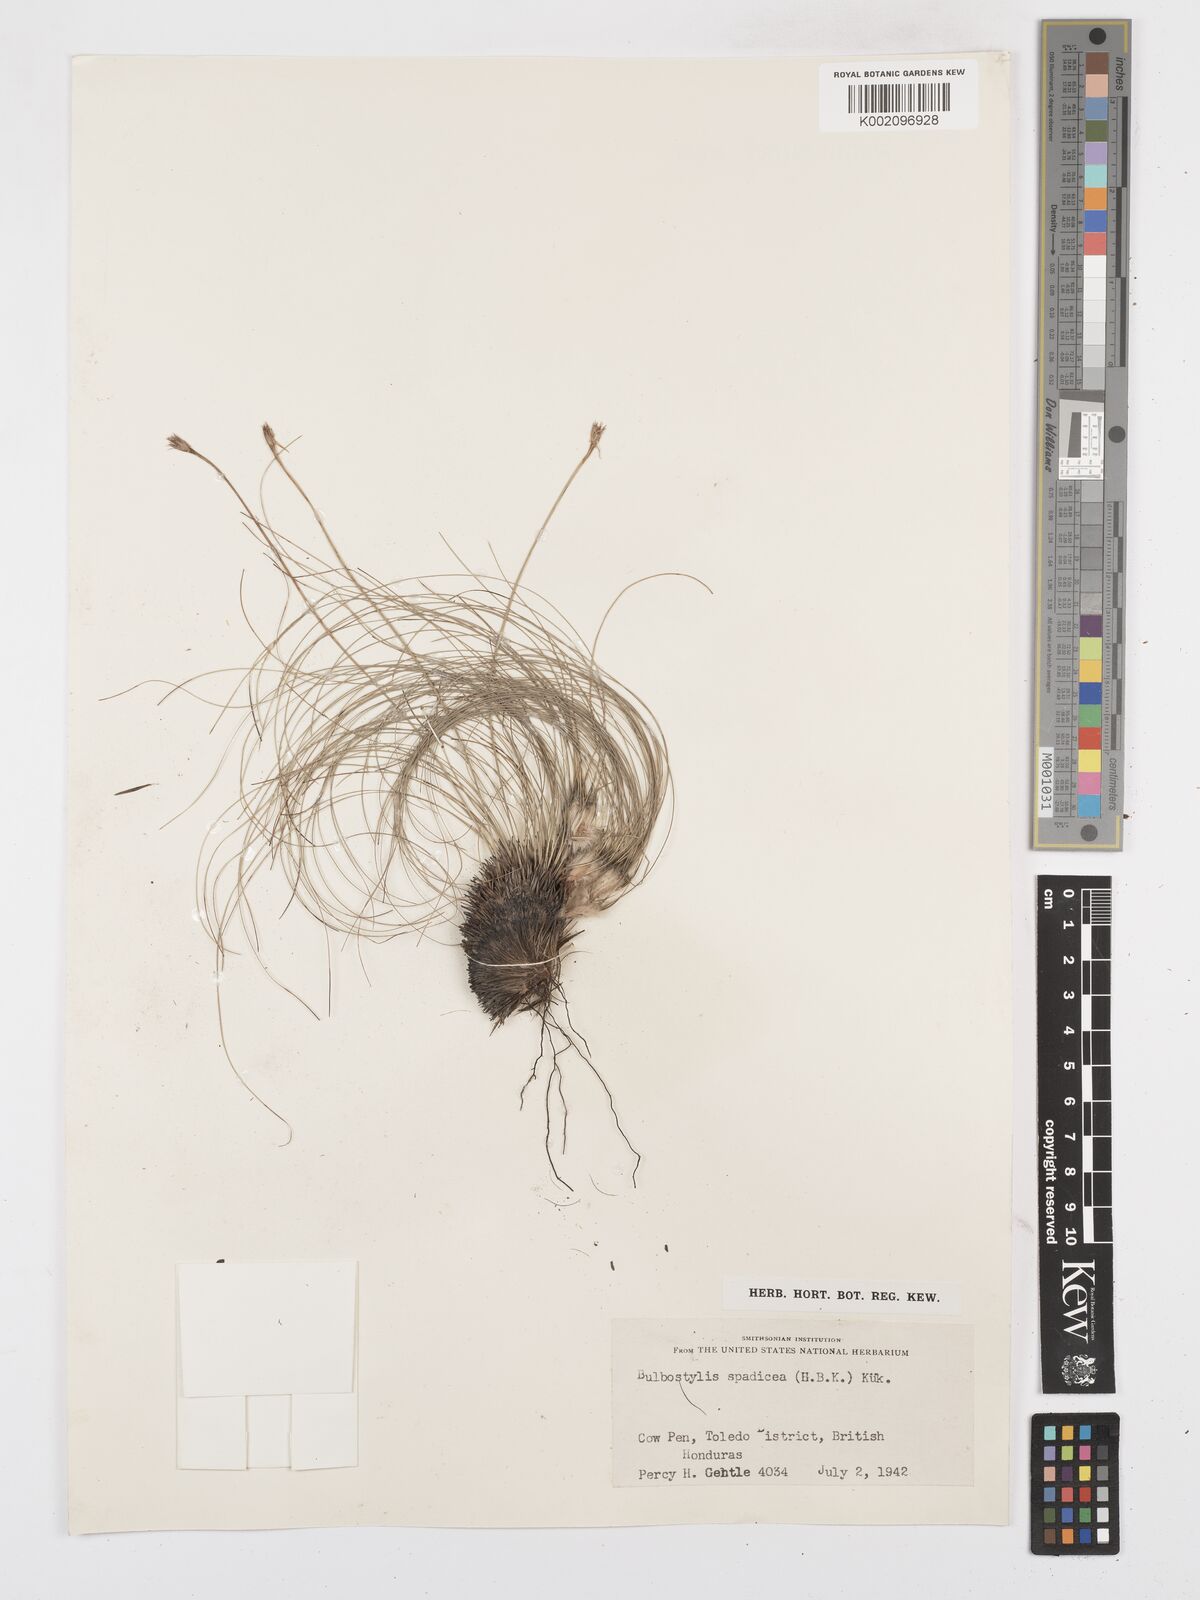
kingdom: Plantae
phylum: Tracheophyta
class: Liliopsida
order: Poales
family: Cyperaceae
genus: Bulbostylis
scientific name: Bulbostylis paradoxa
